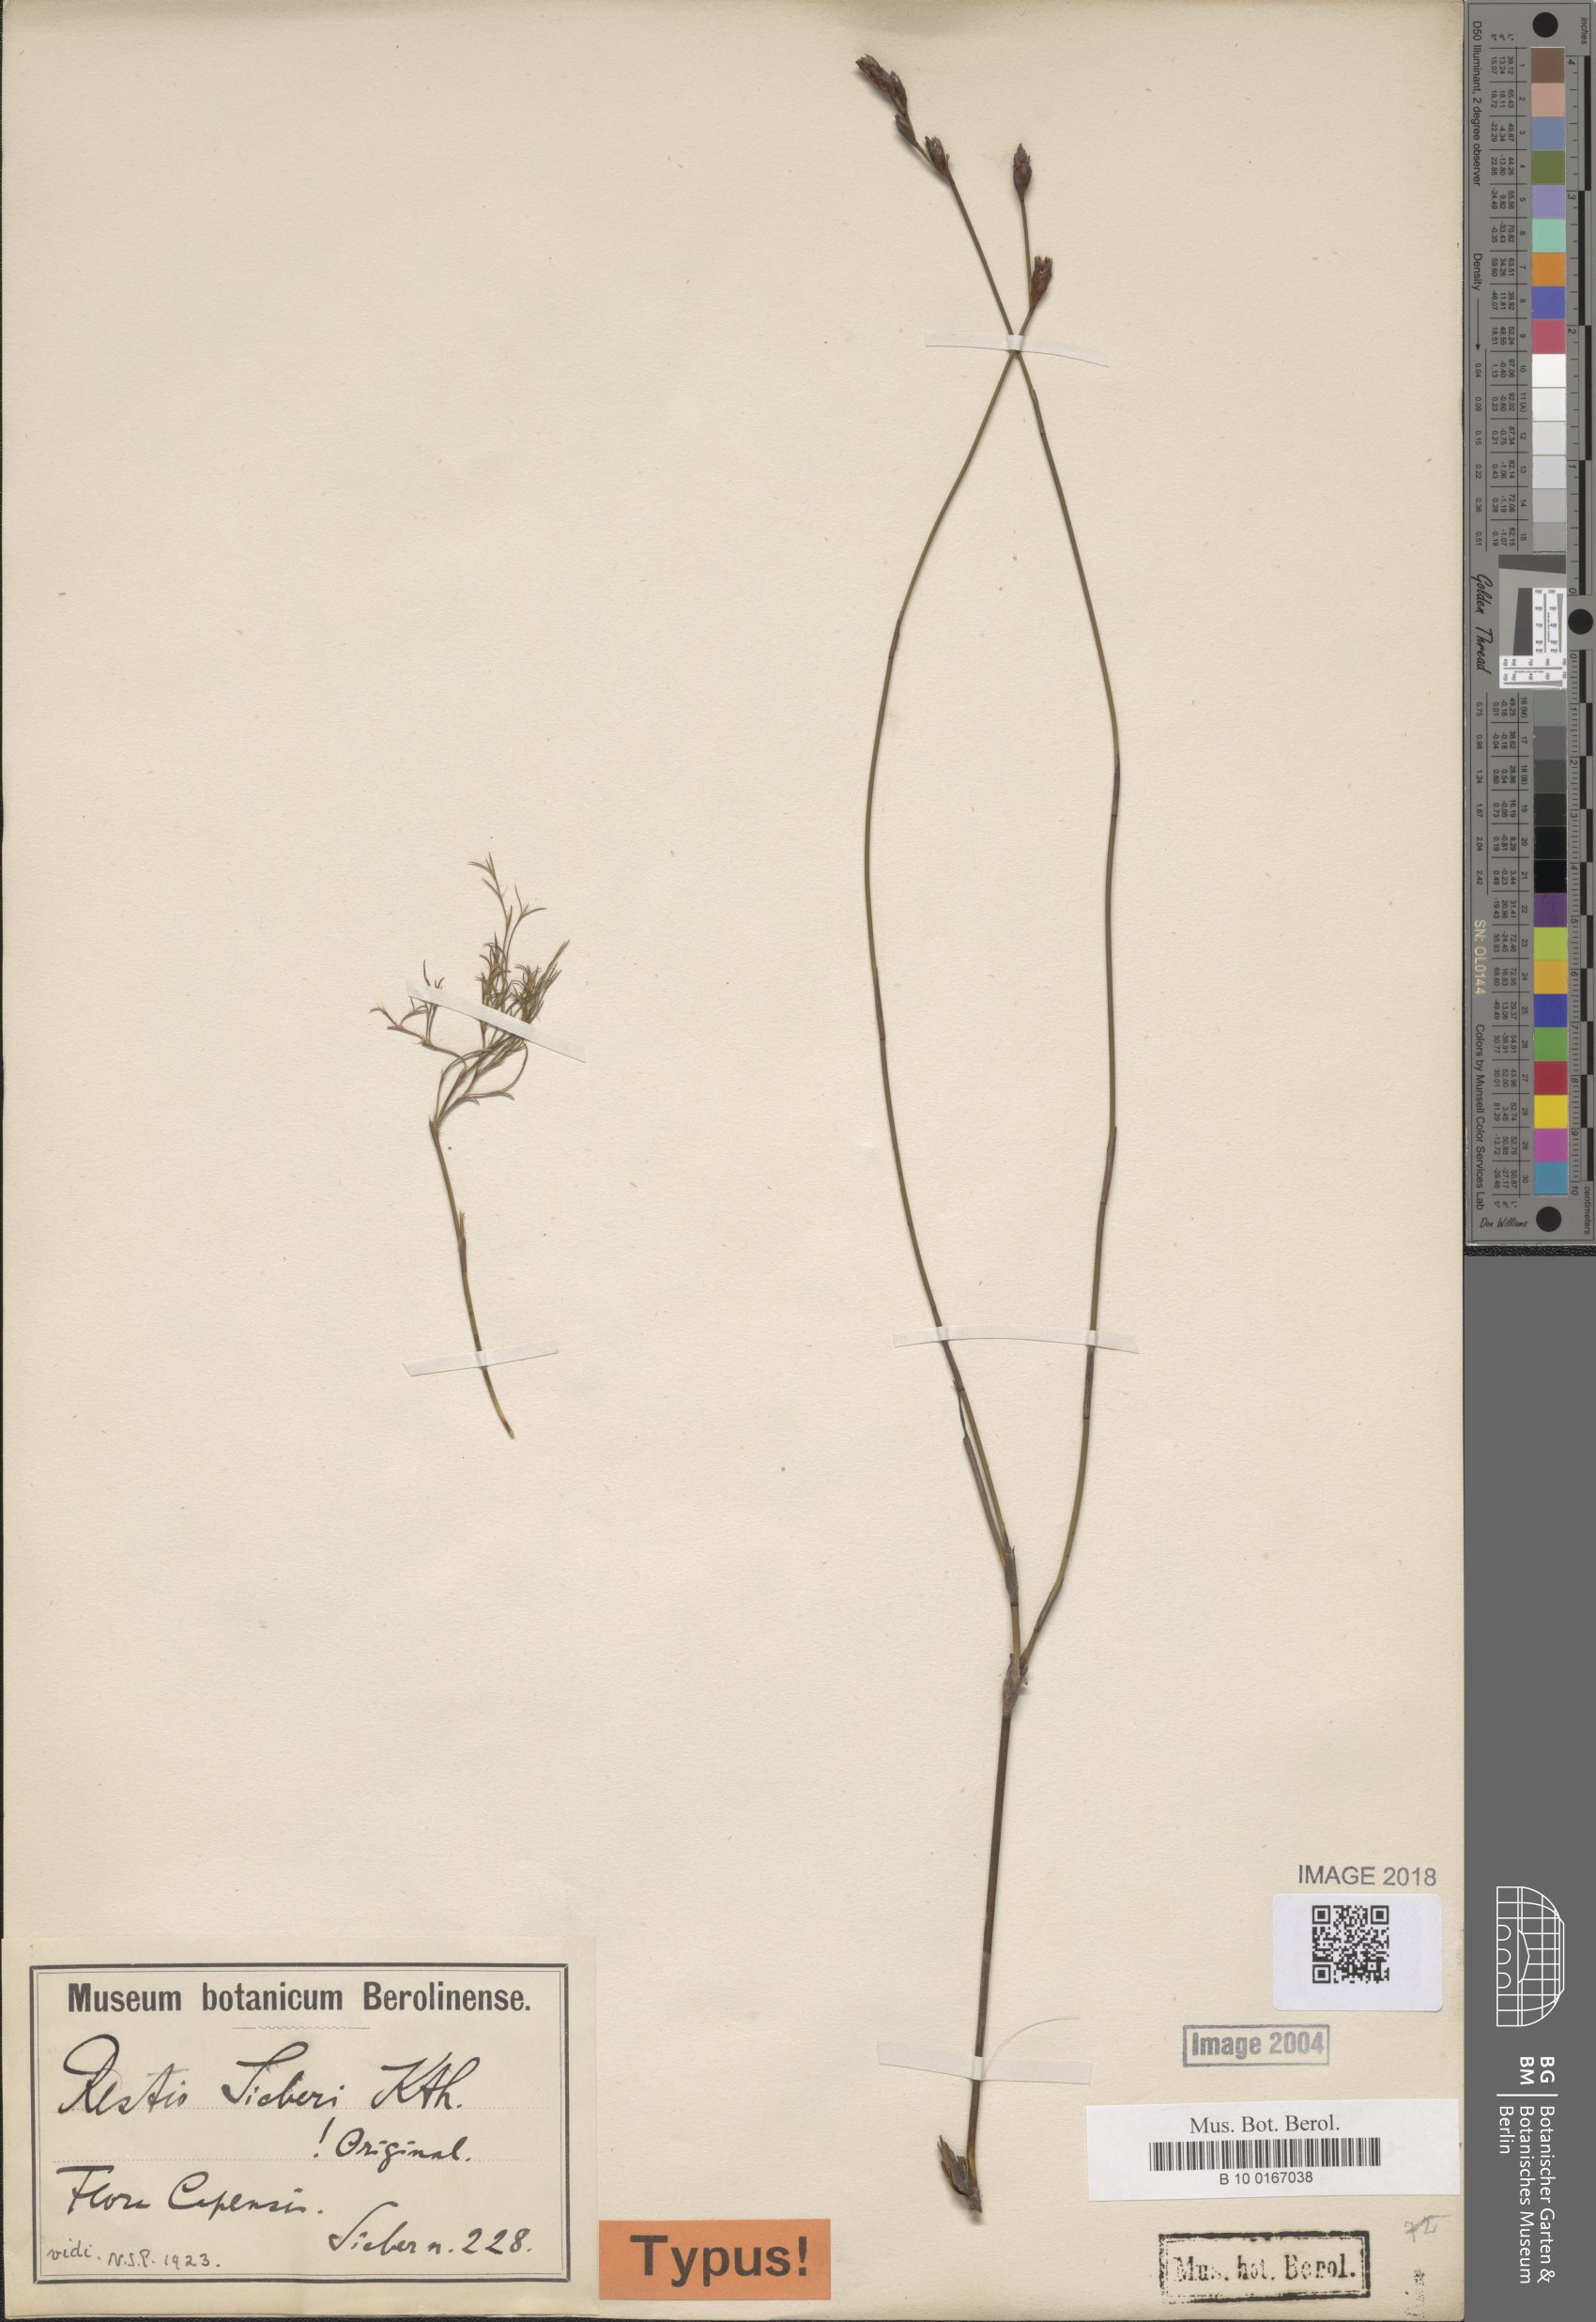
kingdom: Plantae
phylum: Tracheophyta
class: Liliopsida
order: Poales
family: Restionaceae
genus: Restio
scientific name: Restio sieberi
